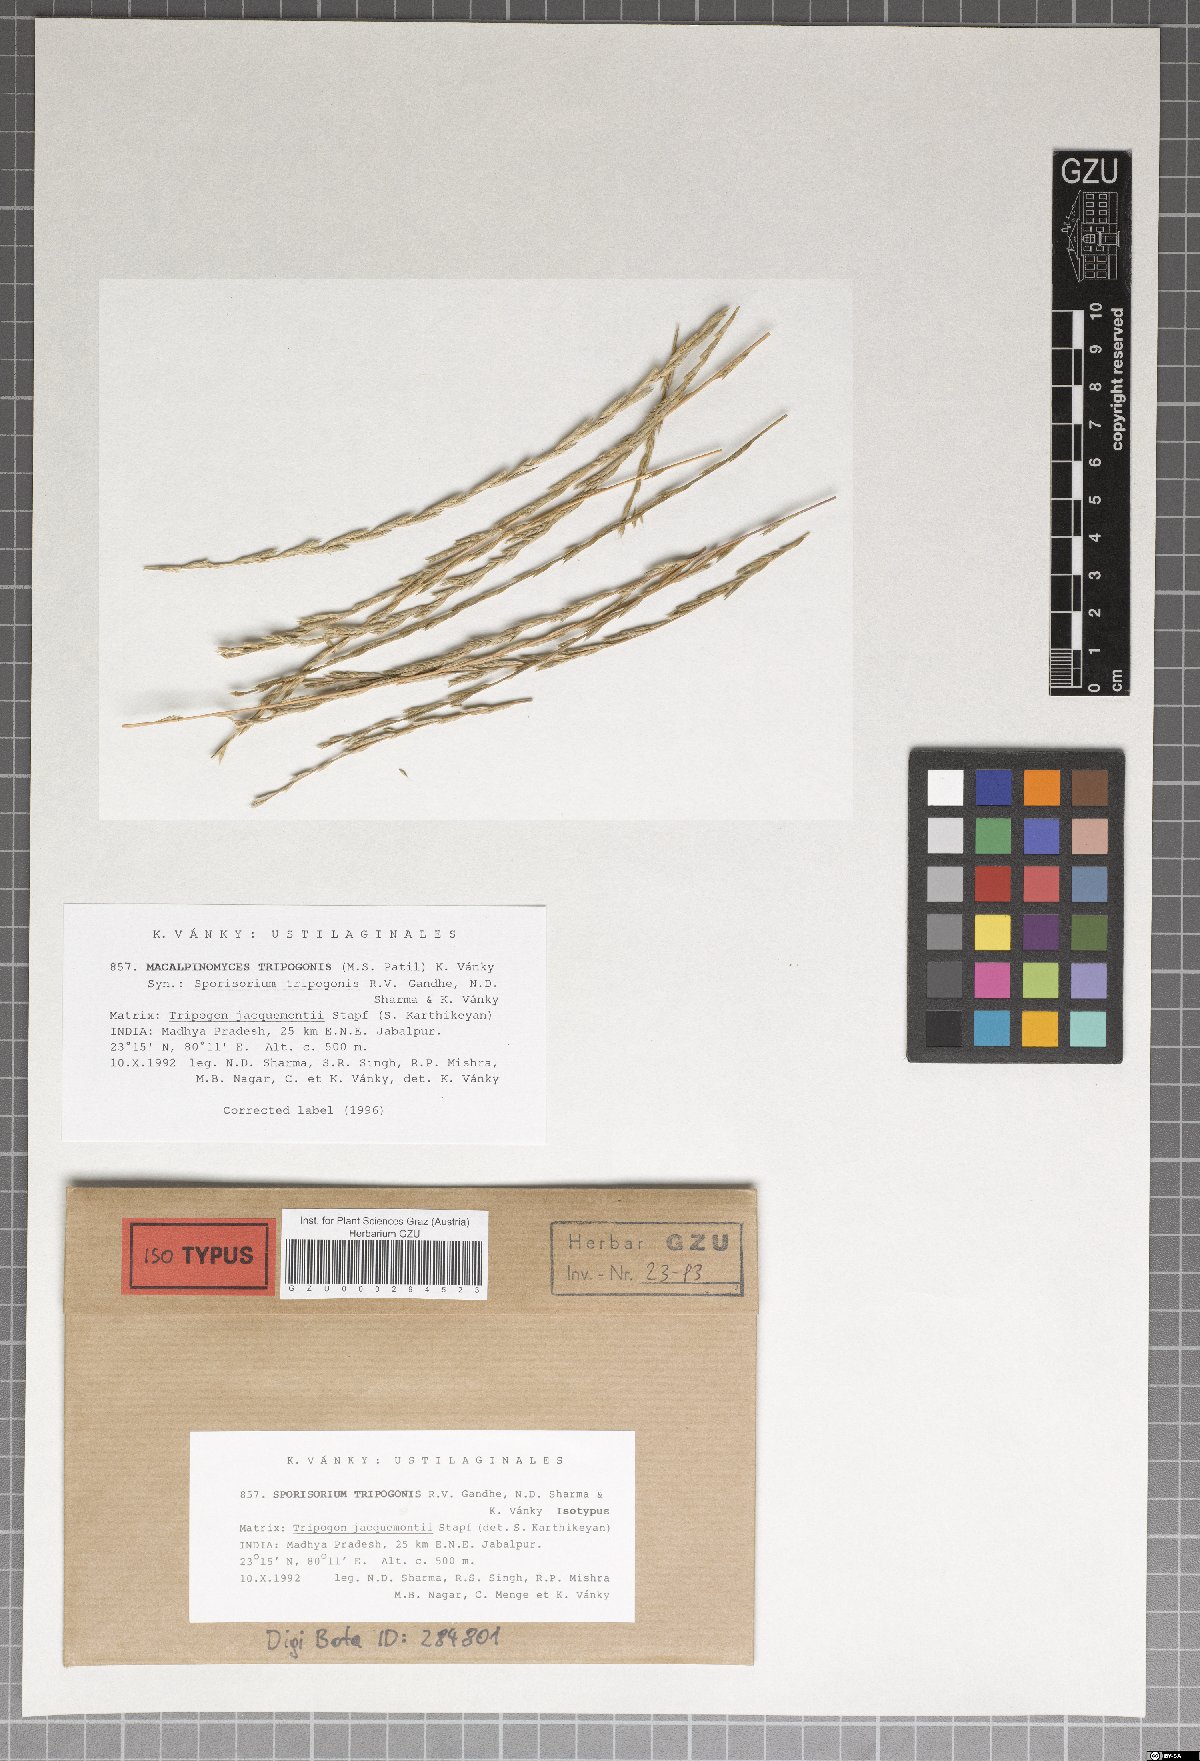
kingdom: Fungi
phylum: Basidiomycota
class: Ustilaginomycetes
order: Ustilaginales
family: Ustilaginaceae
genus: Sporisorium
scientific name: Sporisorium tripogonis
